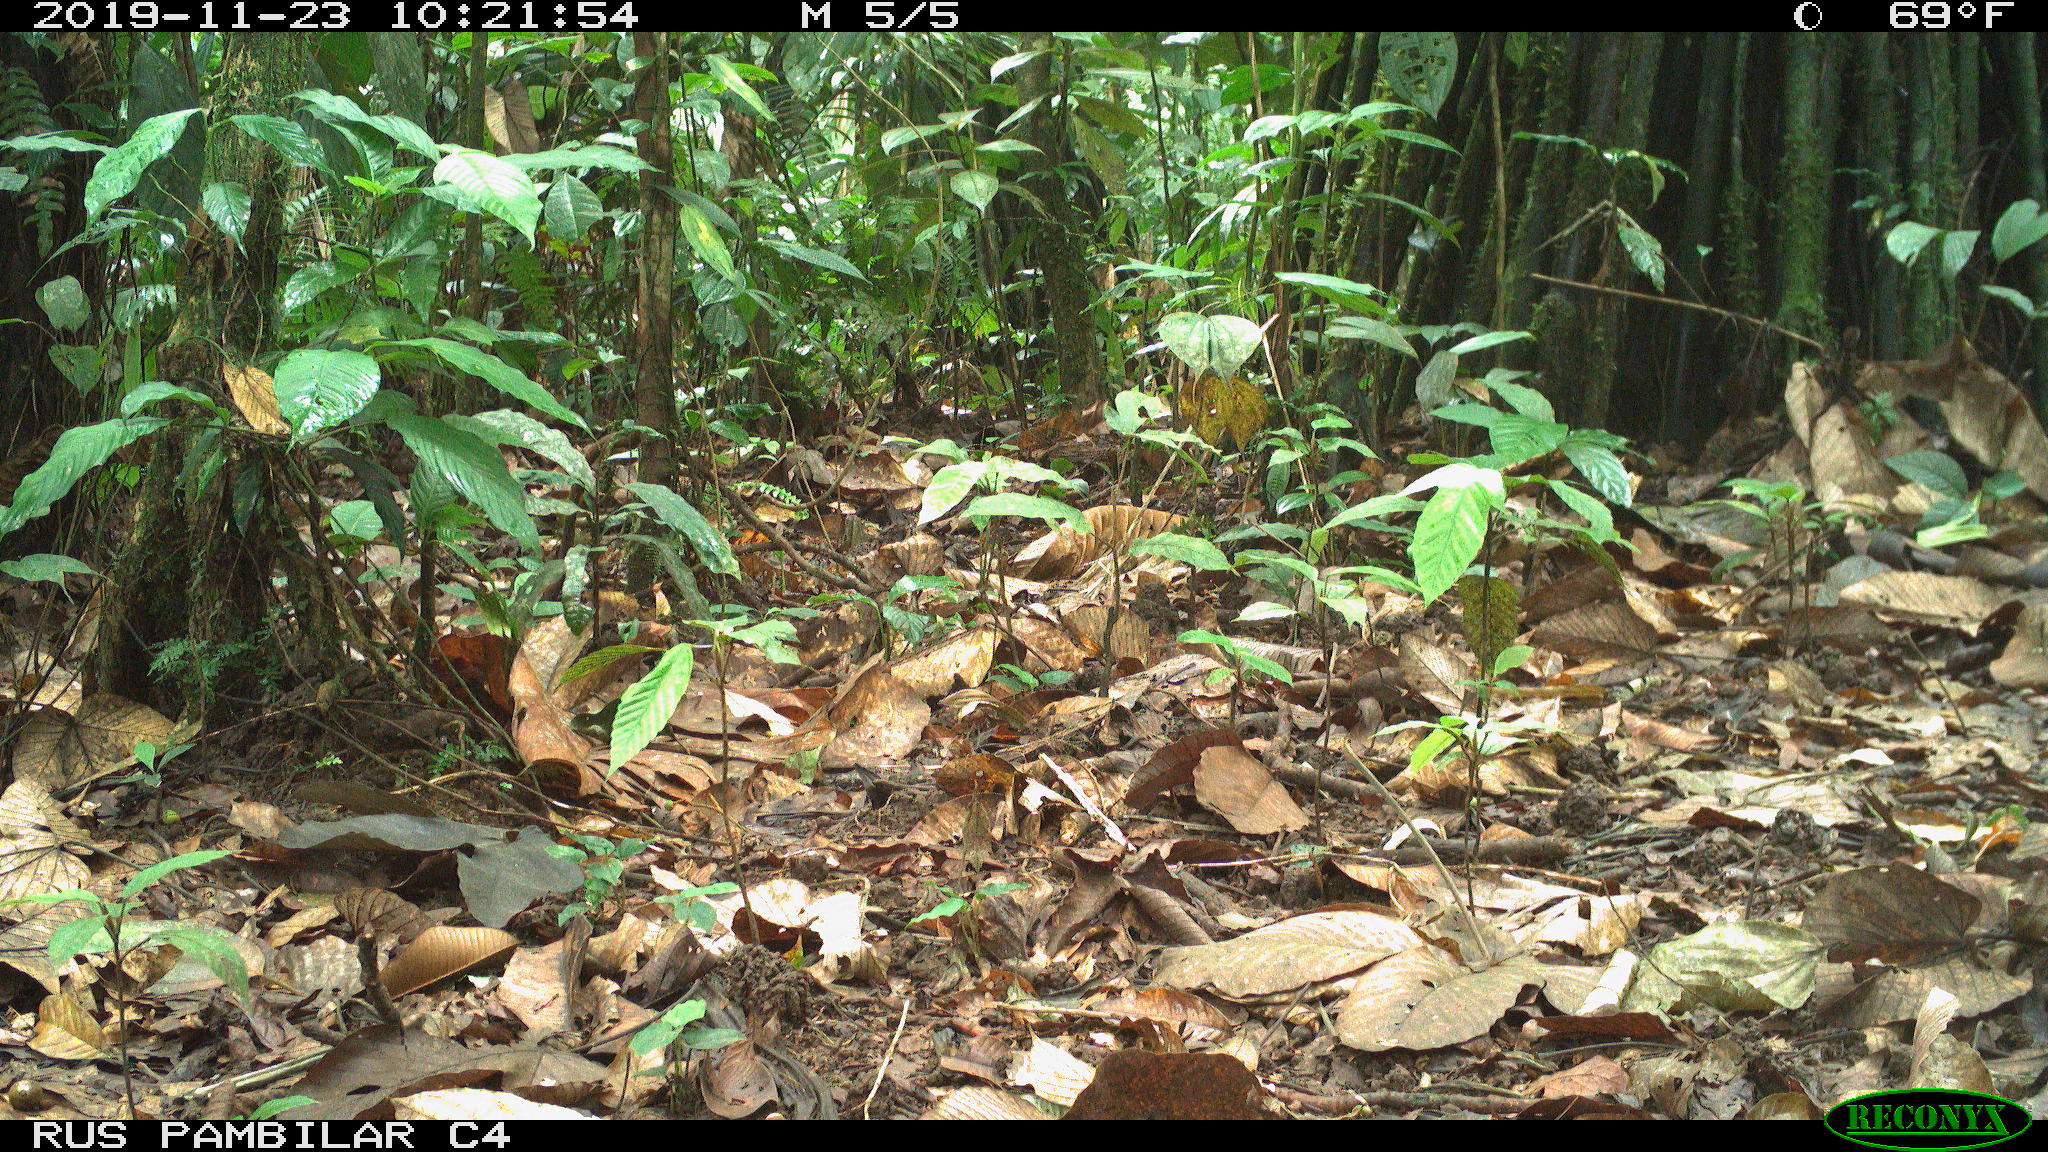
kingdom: Animalia
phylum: Chordata
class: Mammalia
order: Rodentia
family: Dasyproctidae
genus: Dasyprocta
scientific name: Dasyprocta punctata
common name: Central american agouti
